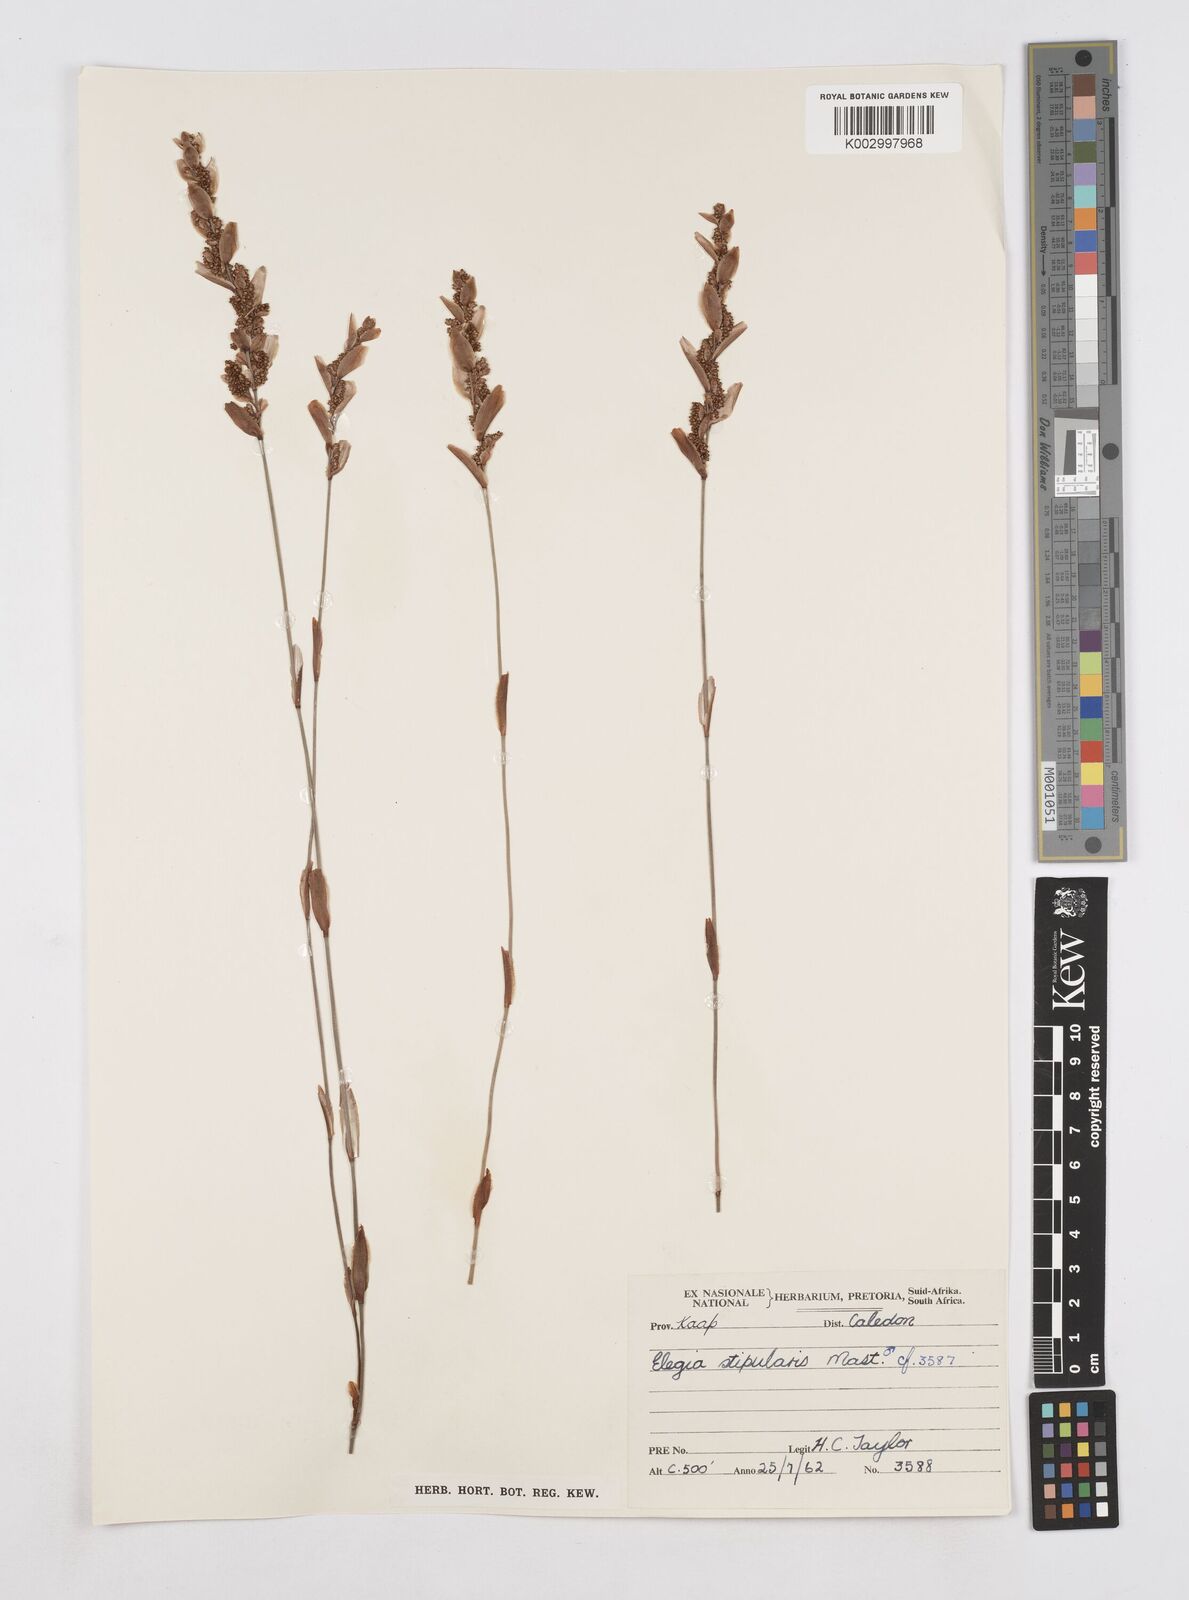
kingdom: Plantae
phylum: Tracheophyta
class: Liliopsida
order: Poales
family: Restionaceae
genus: Elegia
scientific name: Elegia stipularis
